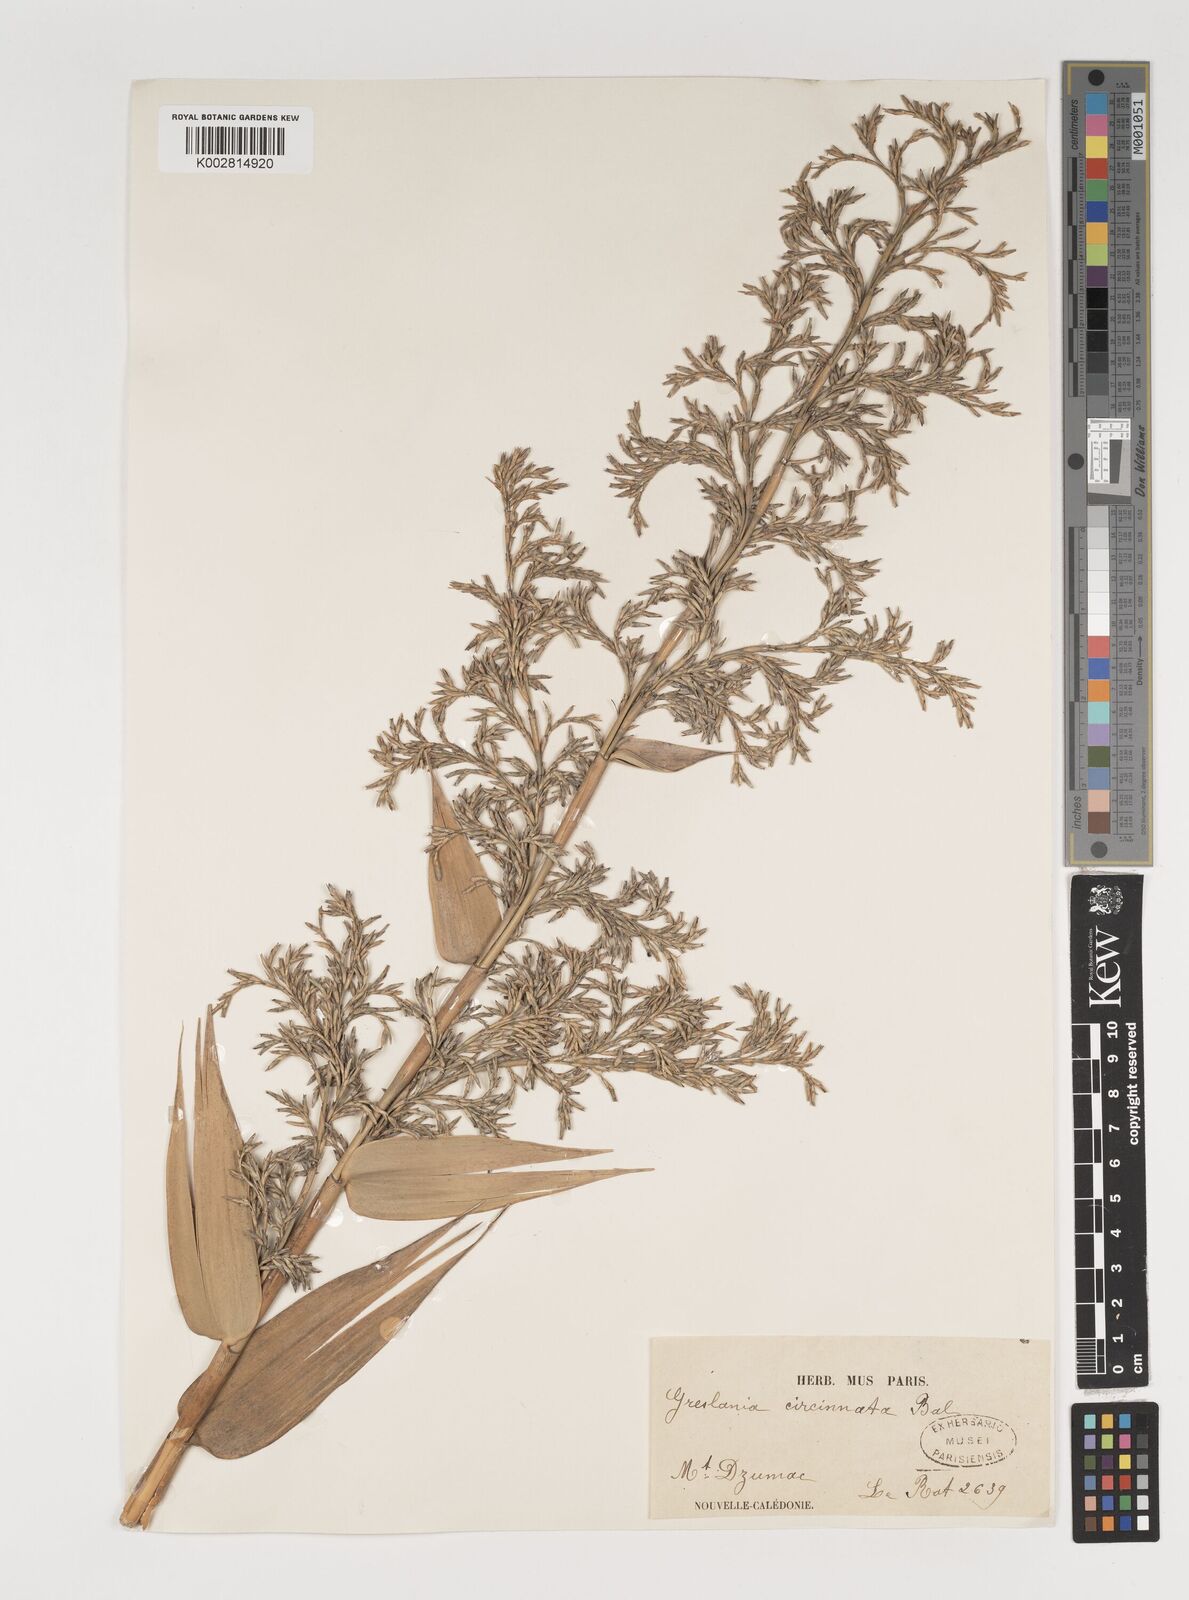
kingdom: Plantae
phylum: Tracheophyta
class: Liliopsida
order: Poales
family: Poaceae
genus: Greslania
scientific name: Greslania circinata
